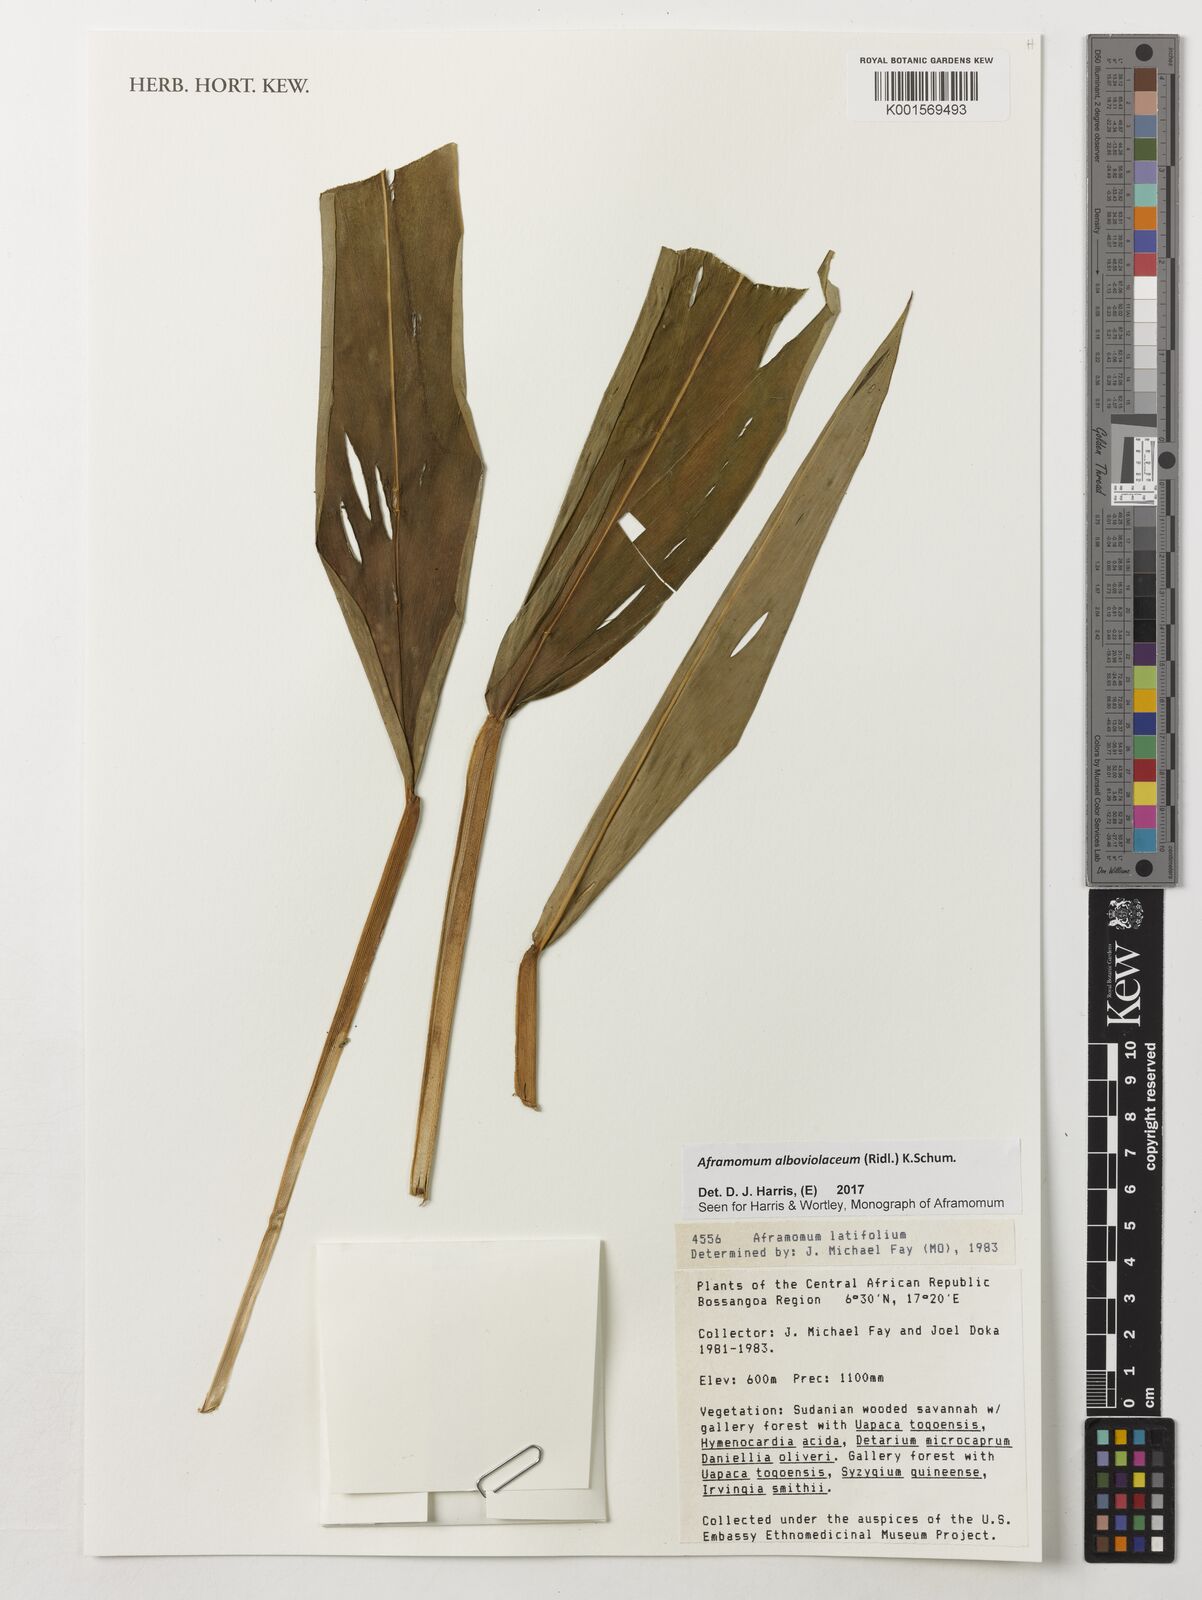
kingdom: Plantae
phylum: Tracheophyta
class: Liliopsida
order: Zingiberales
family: Zingiberaceae
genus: Aframomum
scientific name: Aframomum alboviolaceum
